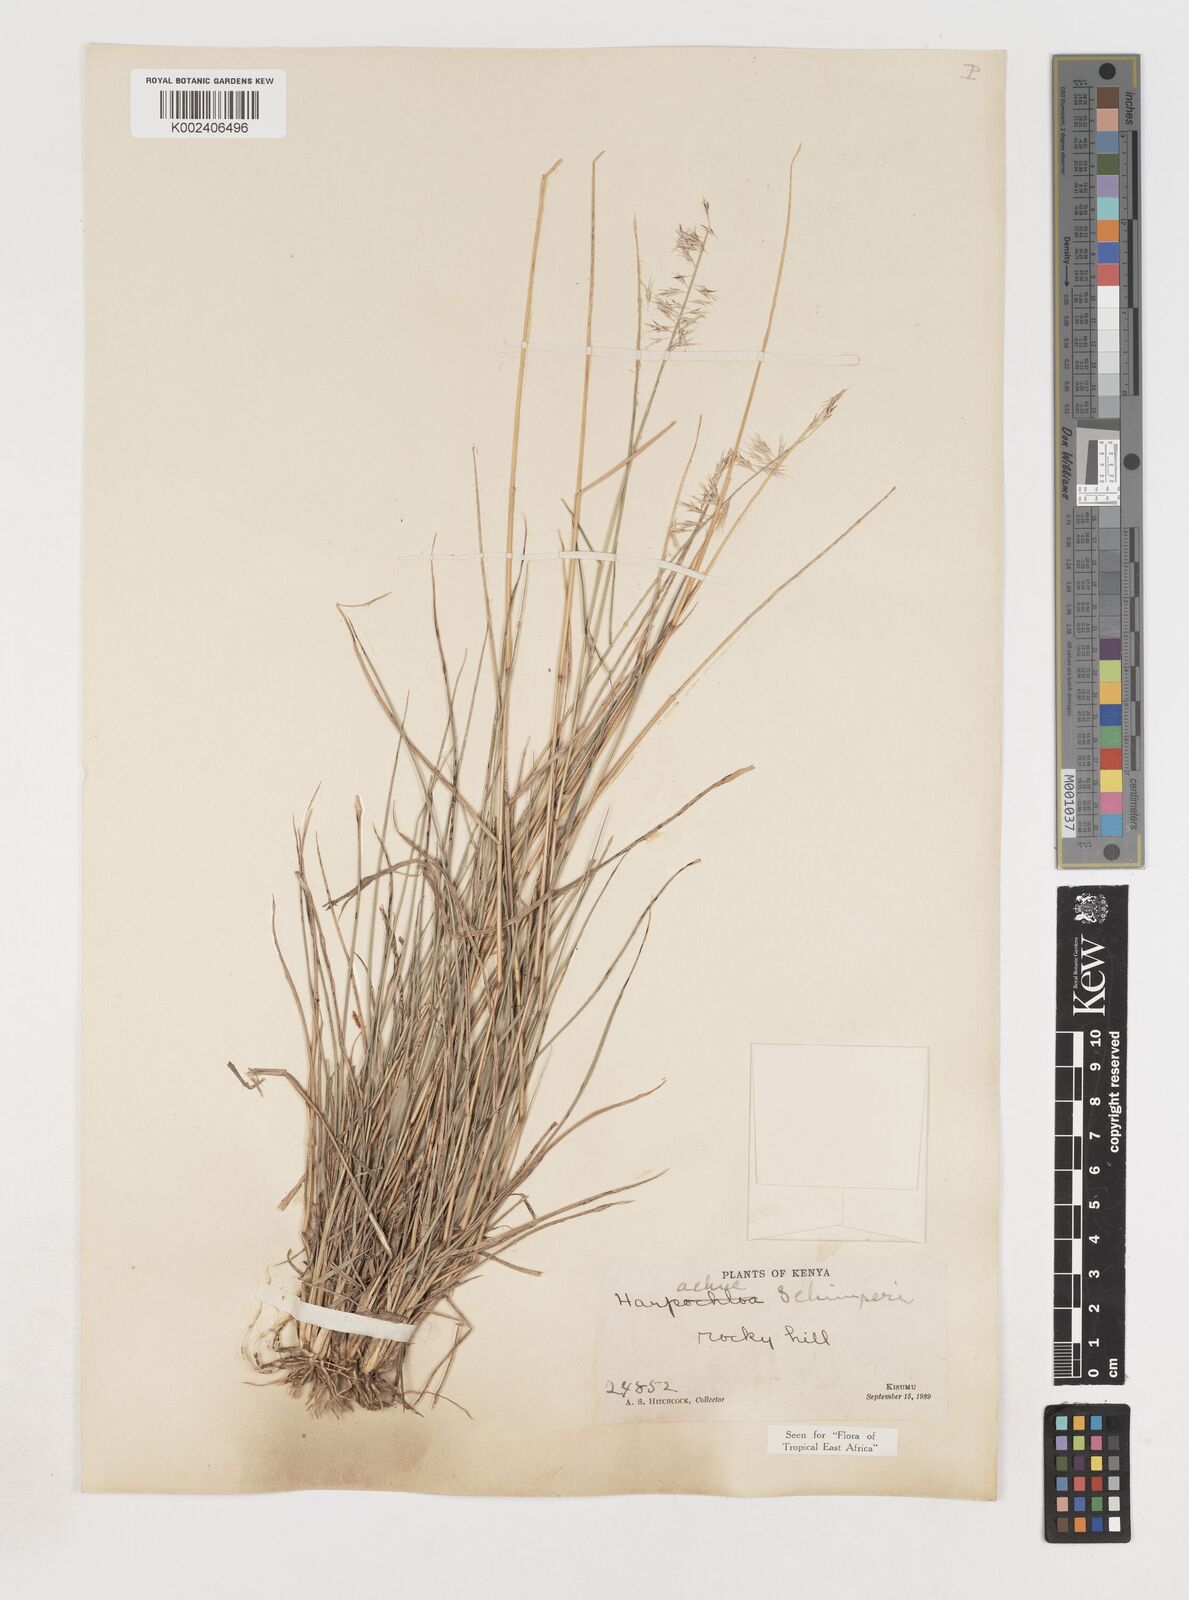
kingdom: Plantae
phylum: Tracheophyta
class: Liliopsida
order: Poales
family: Poaceae
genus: Harpachne
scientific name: Harpachne schimperi
